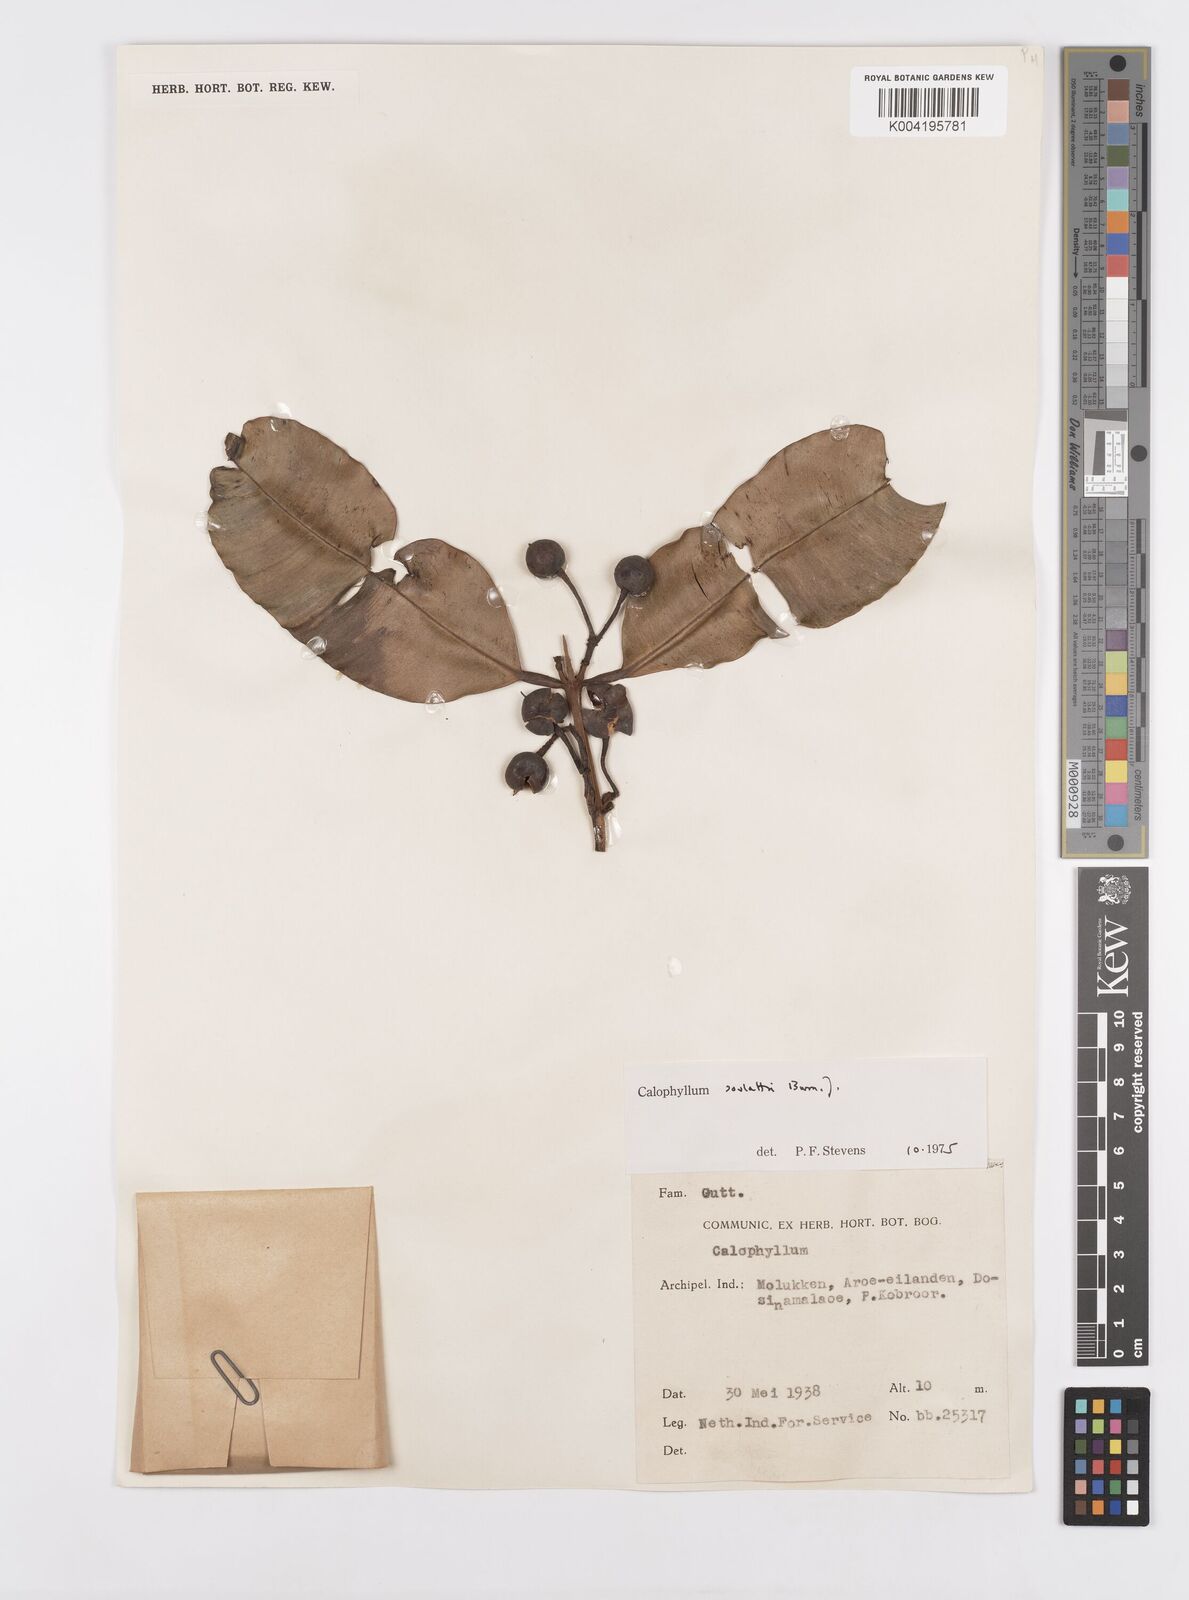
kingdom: Plantae
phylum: Tracheophyta
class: Magnoliopsida
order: Malpighiales
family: Calophyllaceae
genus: Calophyllum
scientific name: Calophyllum soulattri
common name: Bitangoor boonot
